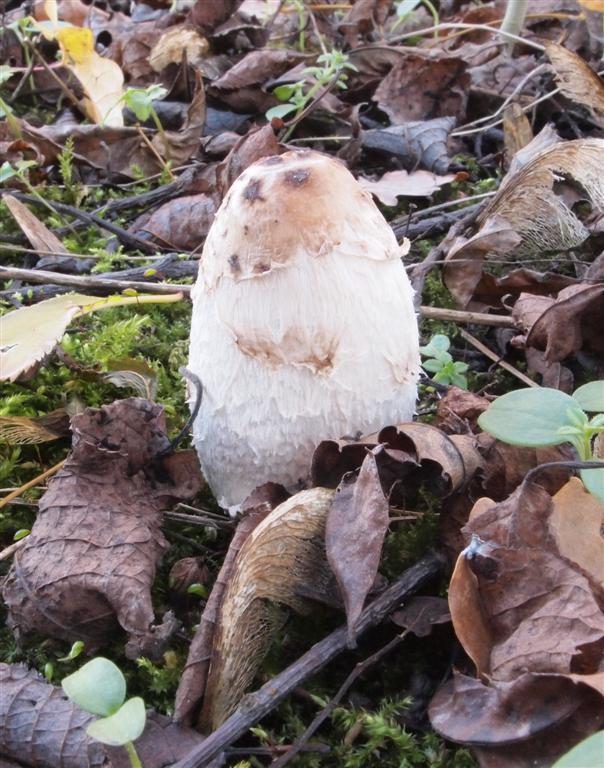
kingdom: Fungi
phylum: Basidiomycota
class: Agaricomycetes
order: Agaricales
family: Agaricaceae
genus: Coprinus
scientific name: Coprinus comatus
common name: stor parykhat
